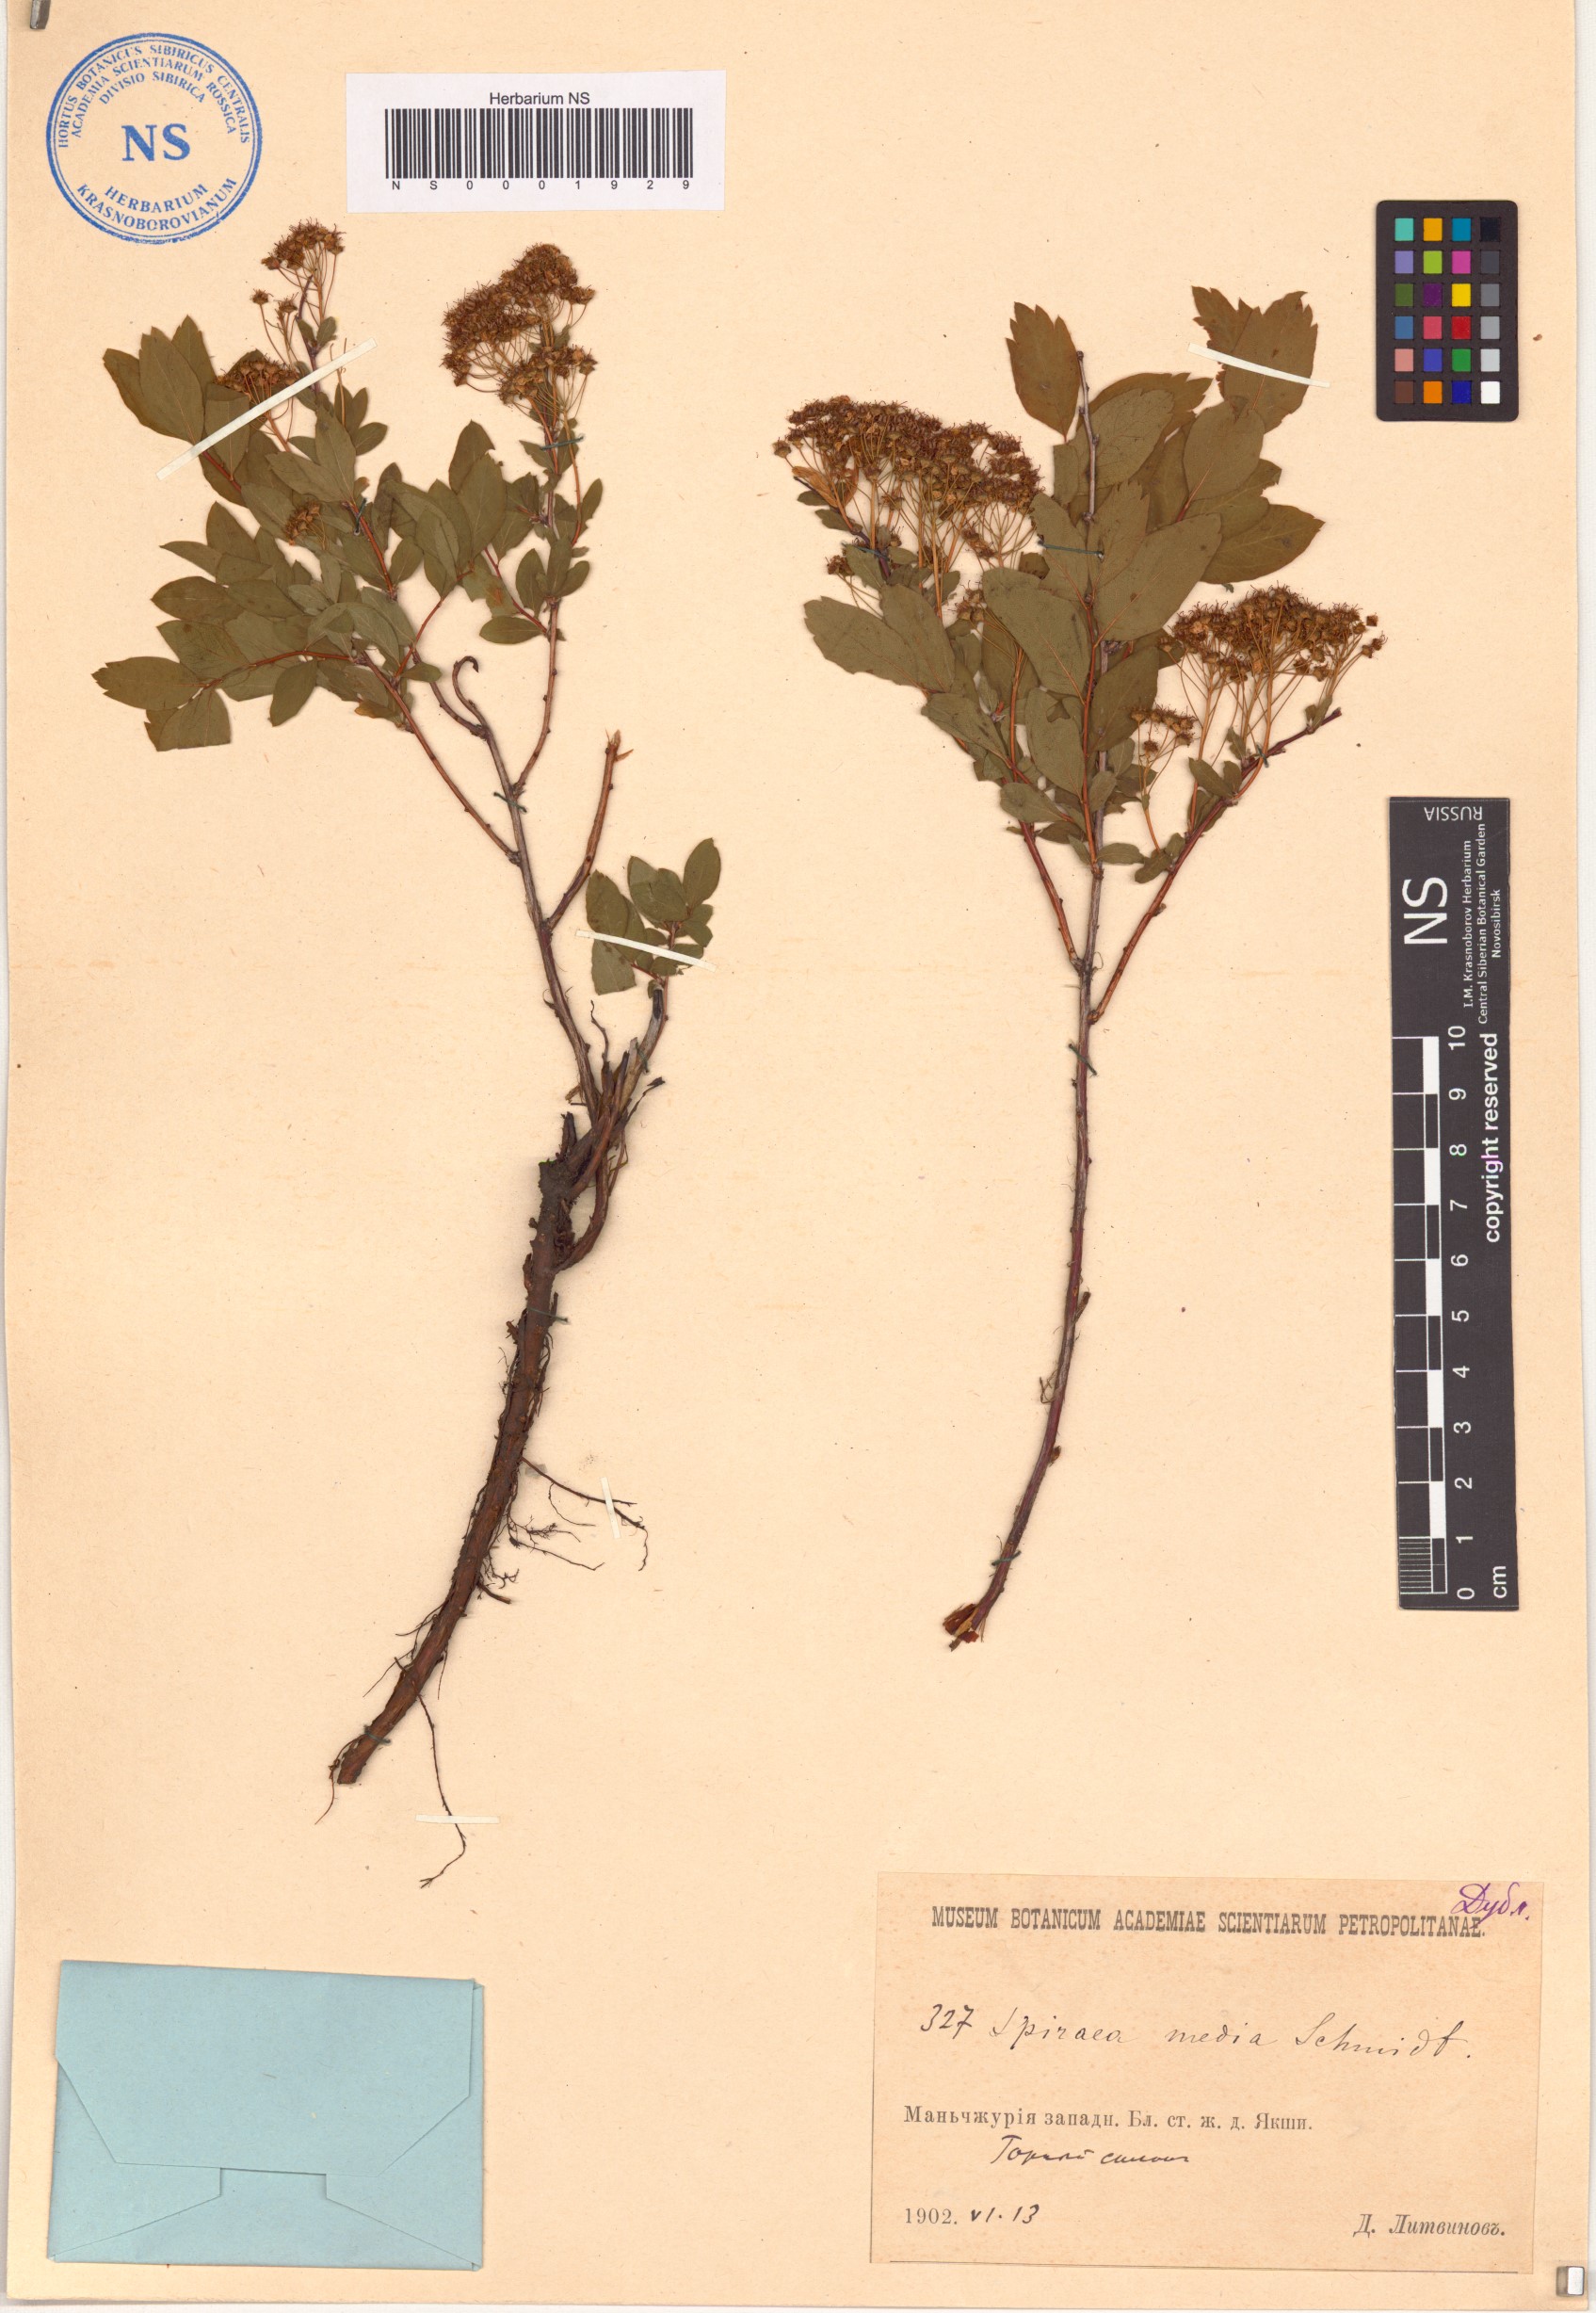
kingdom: Plantae
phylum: Tracheophyta
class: Magnoliopsida
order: Rosales
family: Rosaceae
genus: Spiraea
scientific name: Spiraea media
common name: Russian spiraea
